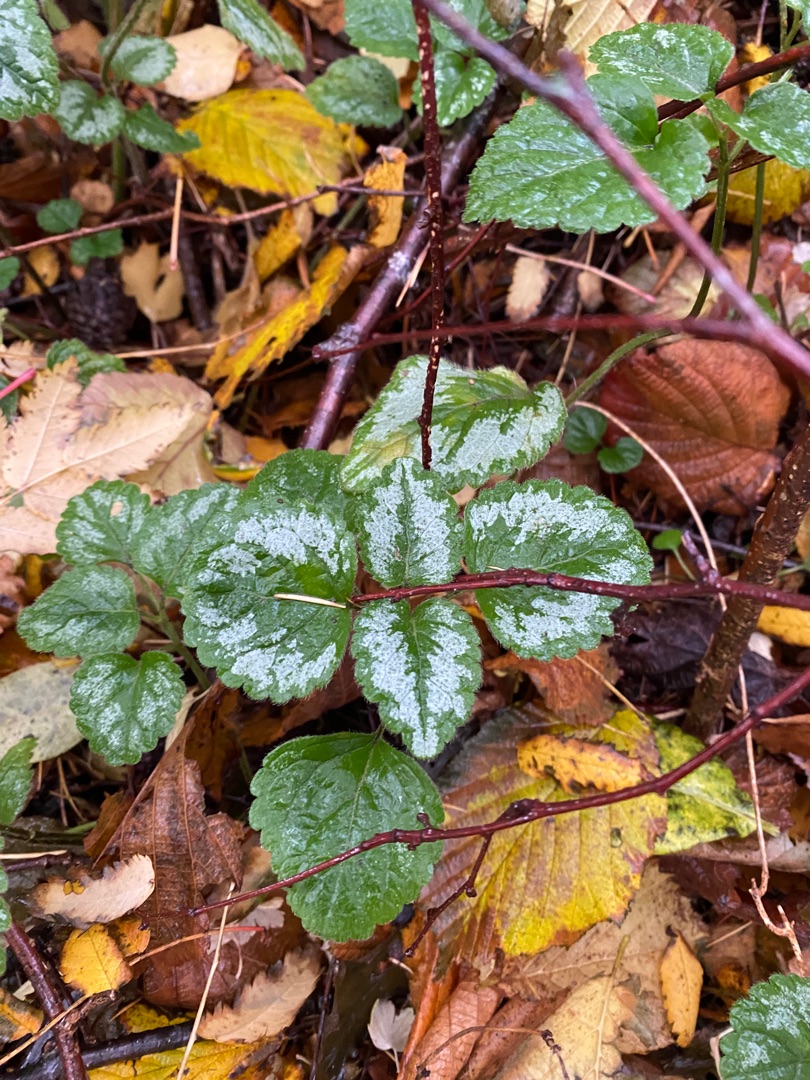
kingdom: Plantae
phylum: Tracheophyta
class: Magnoliopsida
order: Lamiales
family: Lamiaceae
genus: Lamium
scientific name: Lamium galeobdolon
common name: Have-guldnælde
